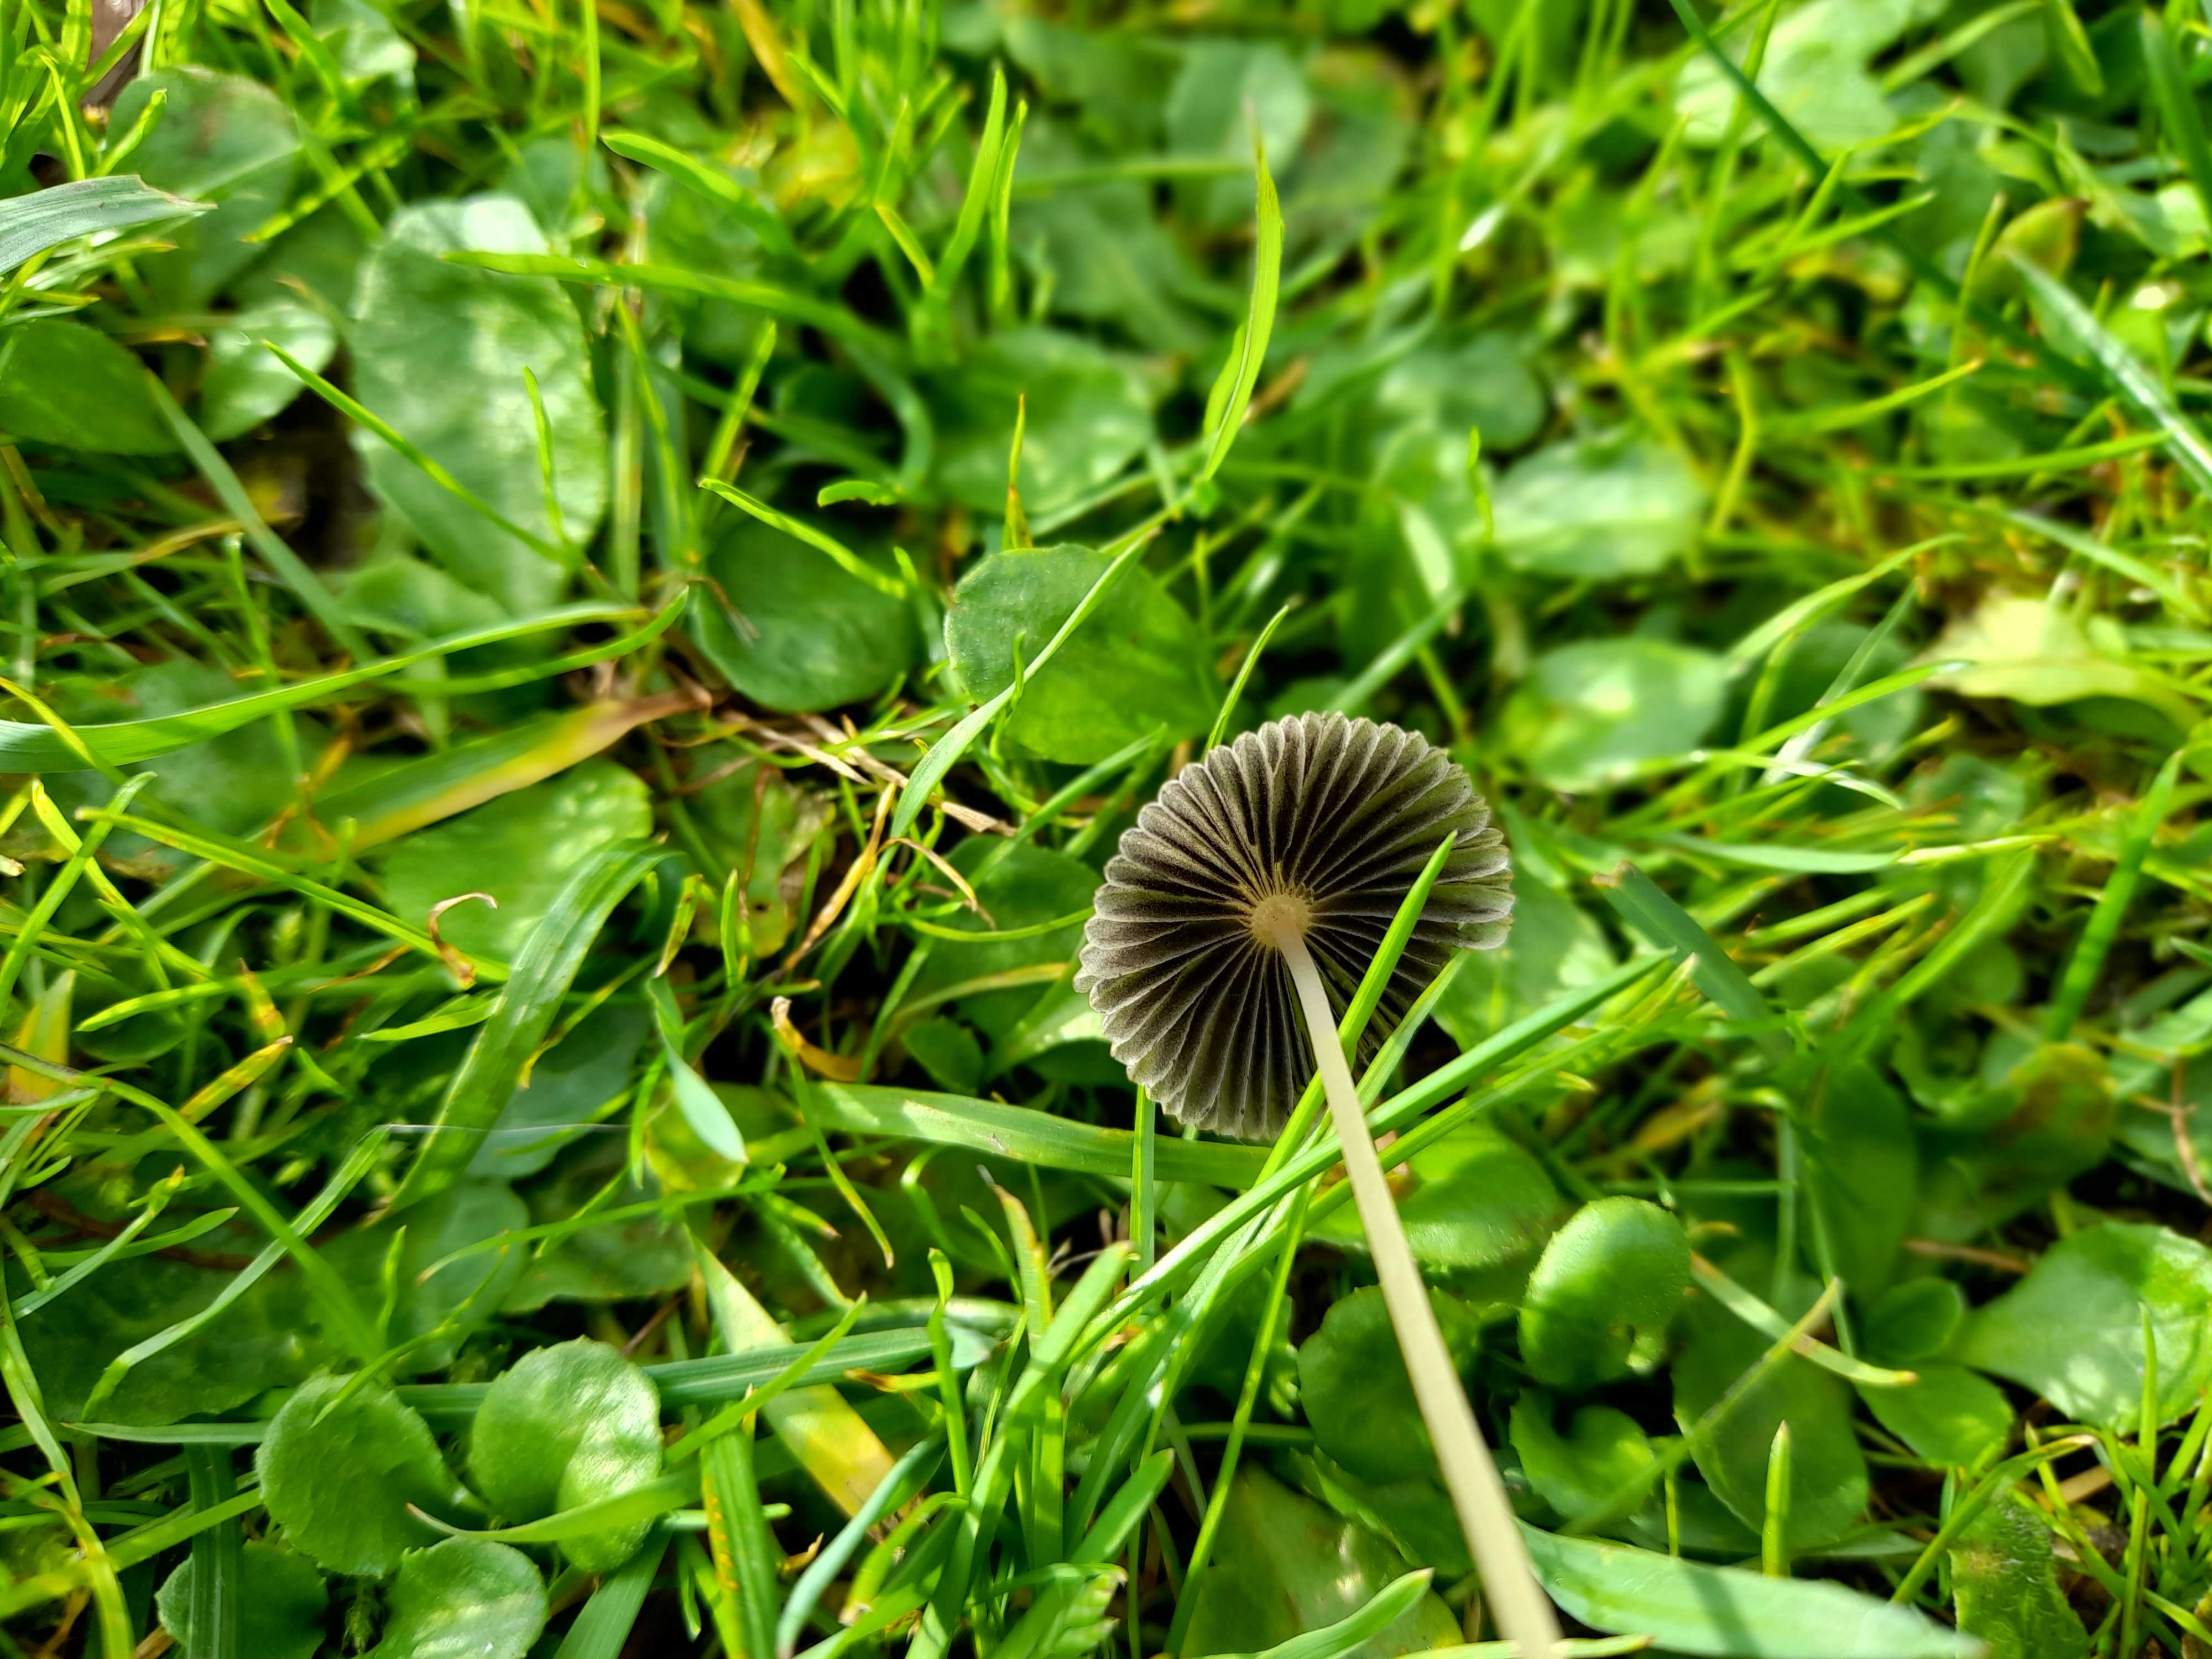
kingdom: Fungi
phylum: Basidiomycota
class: Agaricomycetes
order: Agaricales
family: Psathyrellaceae
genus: Parasola
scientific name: Parasola
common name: hjulhat
